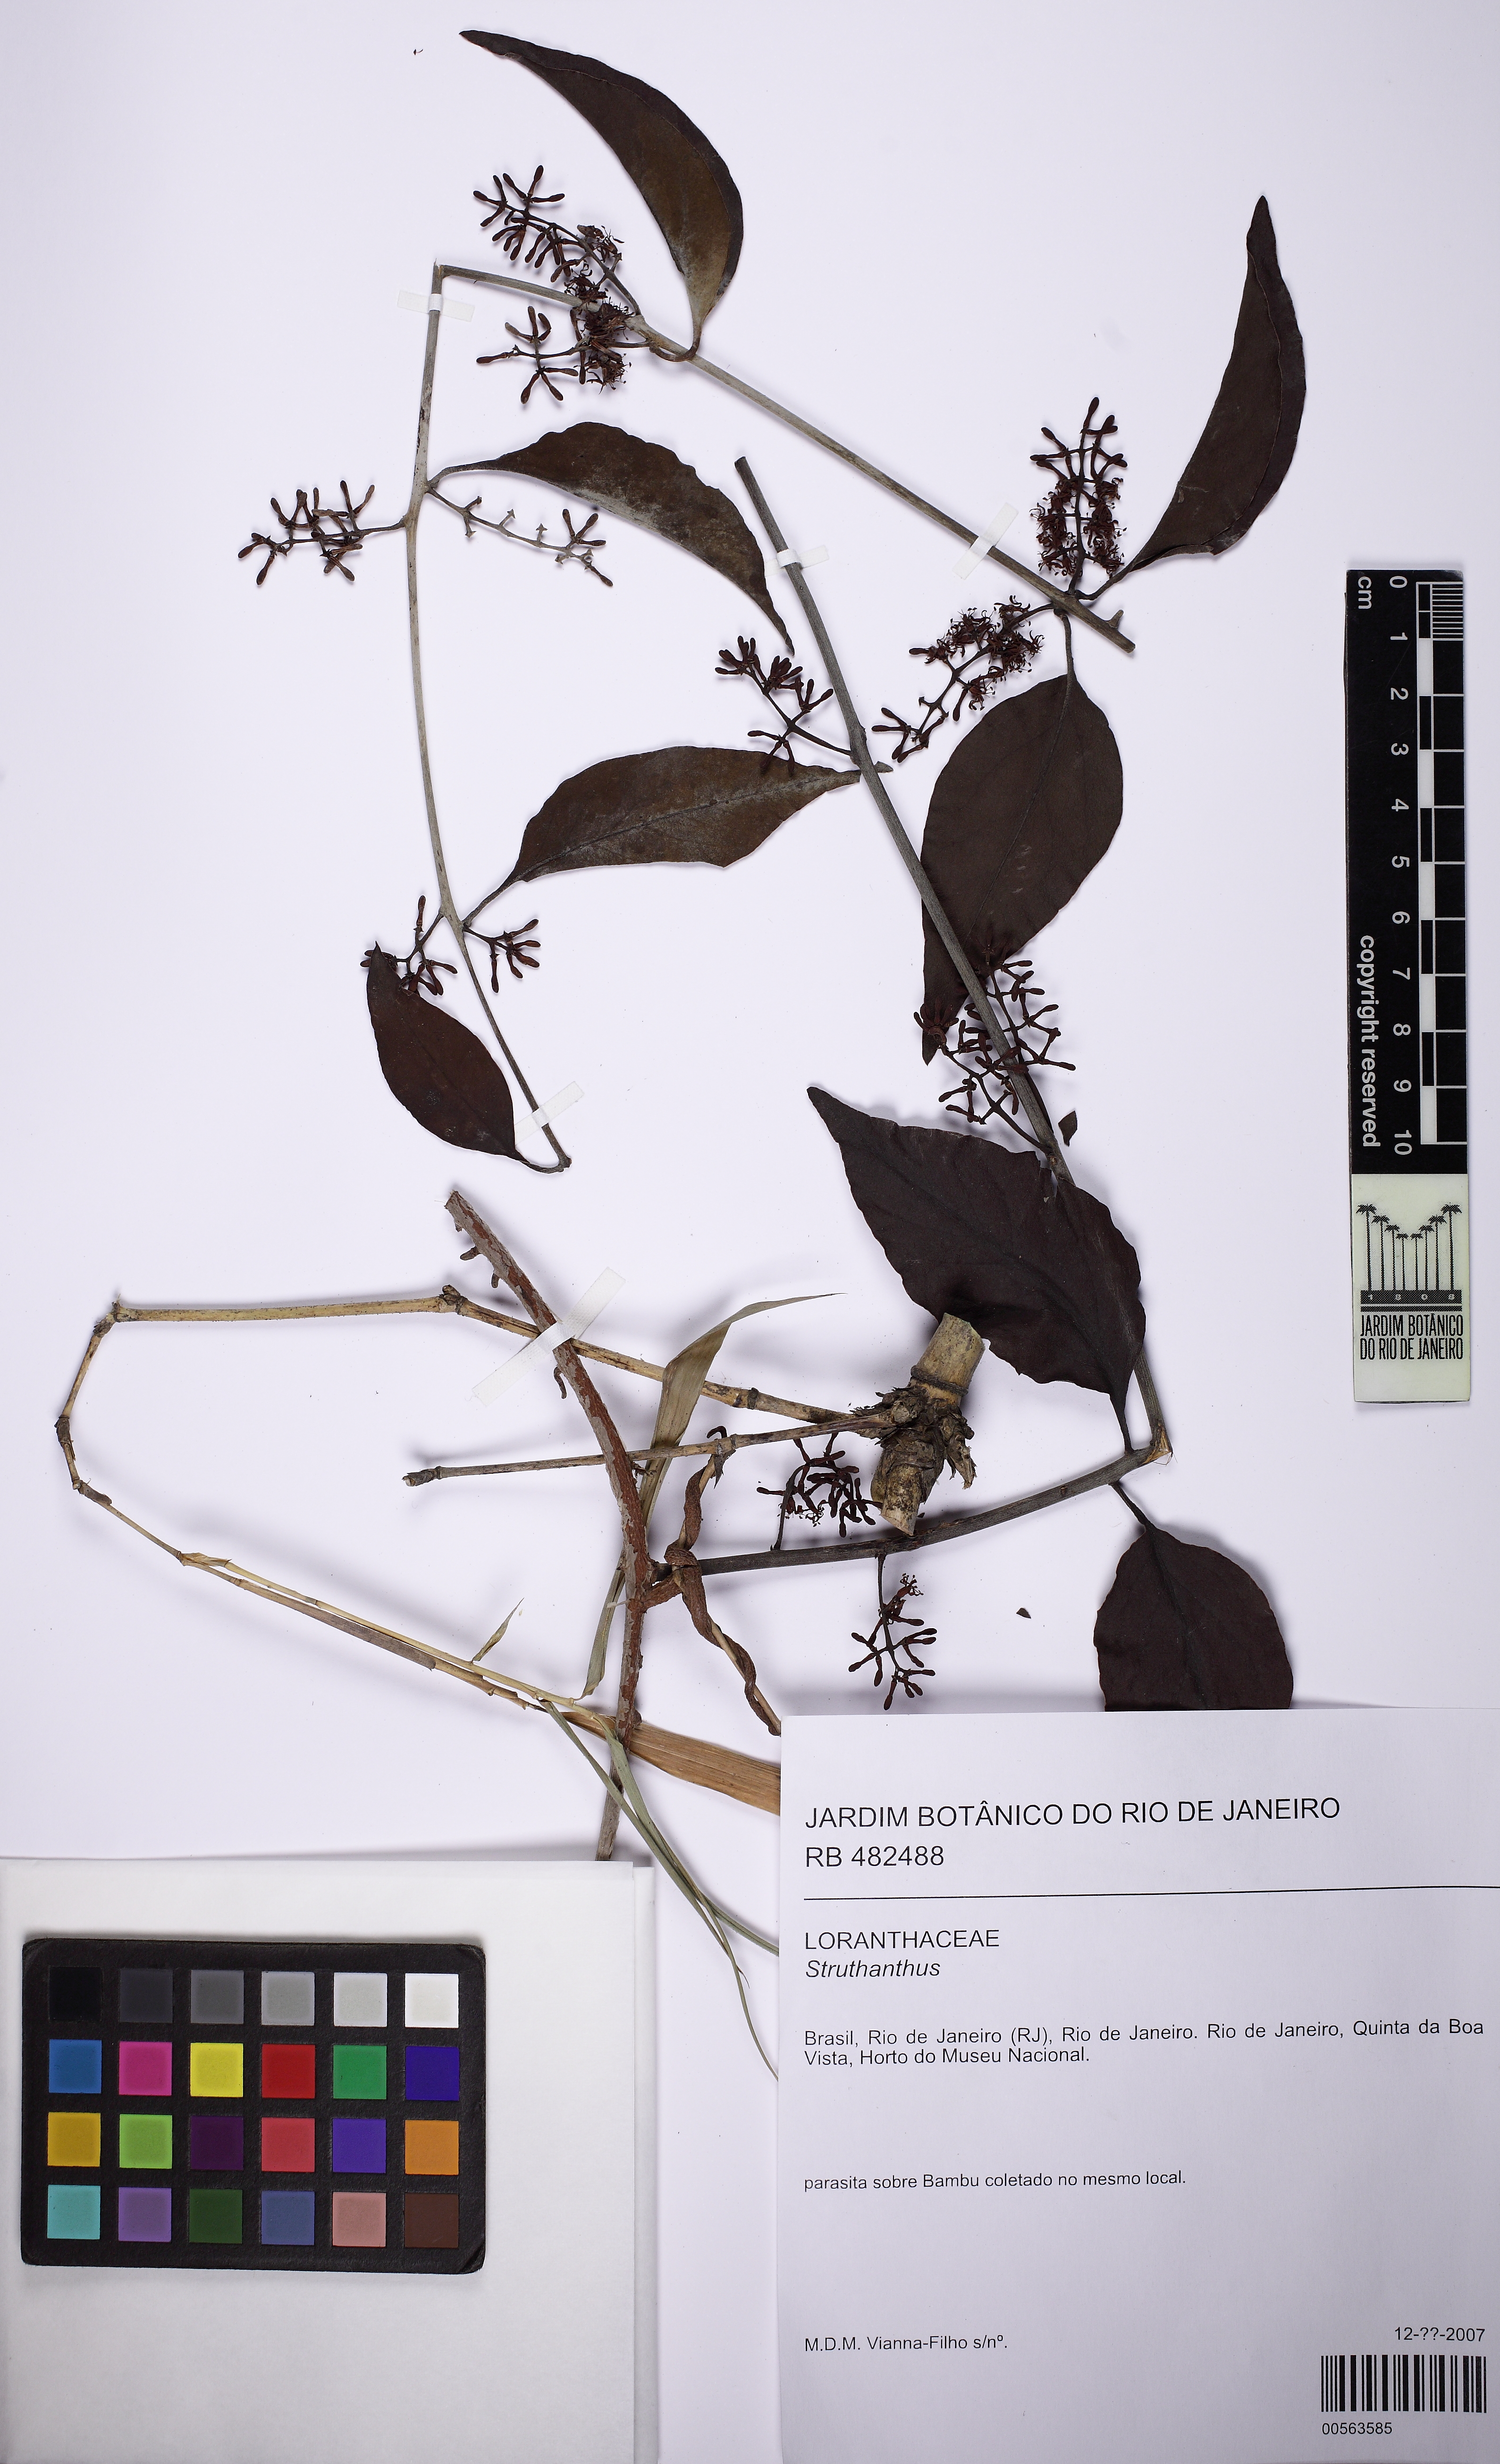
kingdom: Plantae
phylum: Tracheophyta
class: Magnoliopsida
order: Santalales
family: Loranthaceae
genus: Struthanthus
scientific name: Struthanthus
